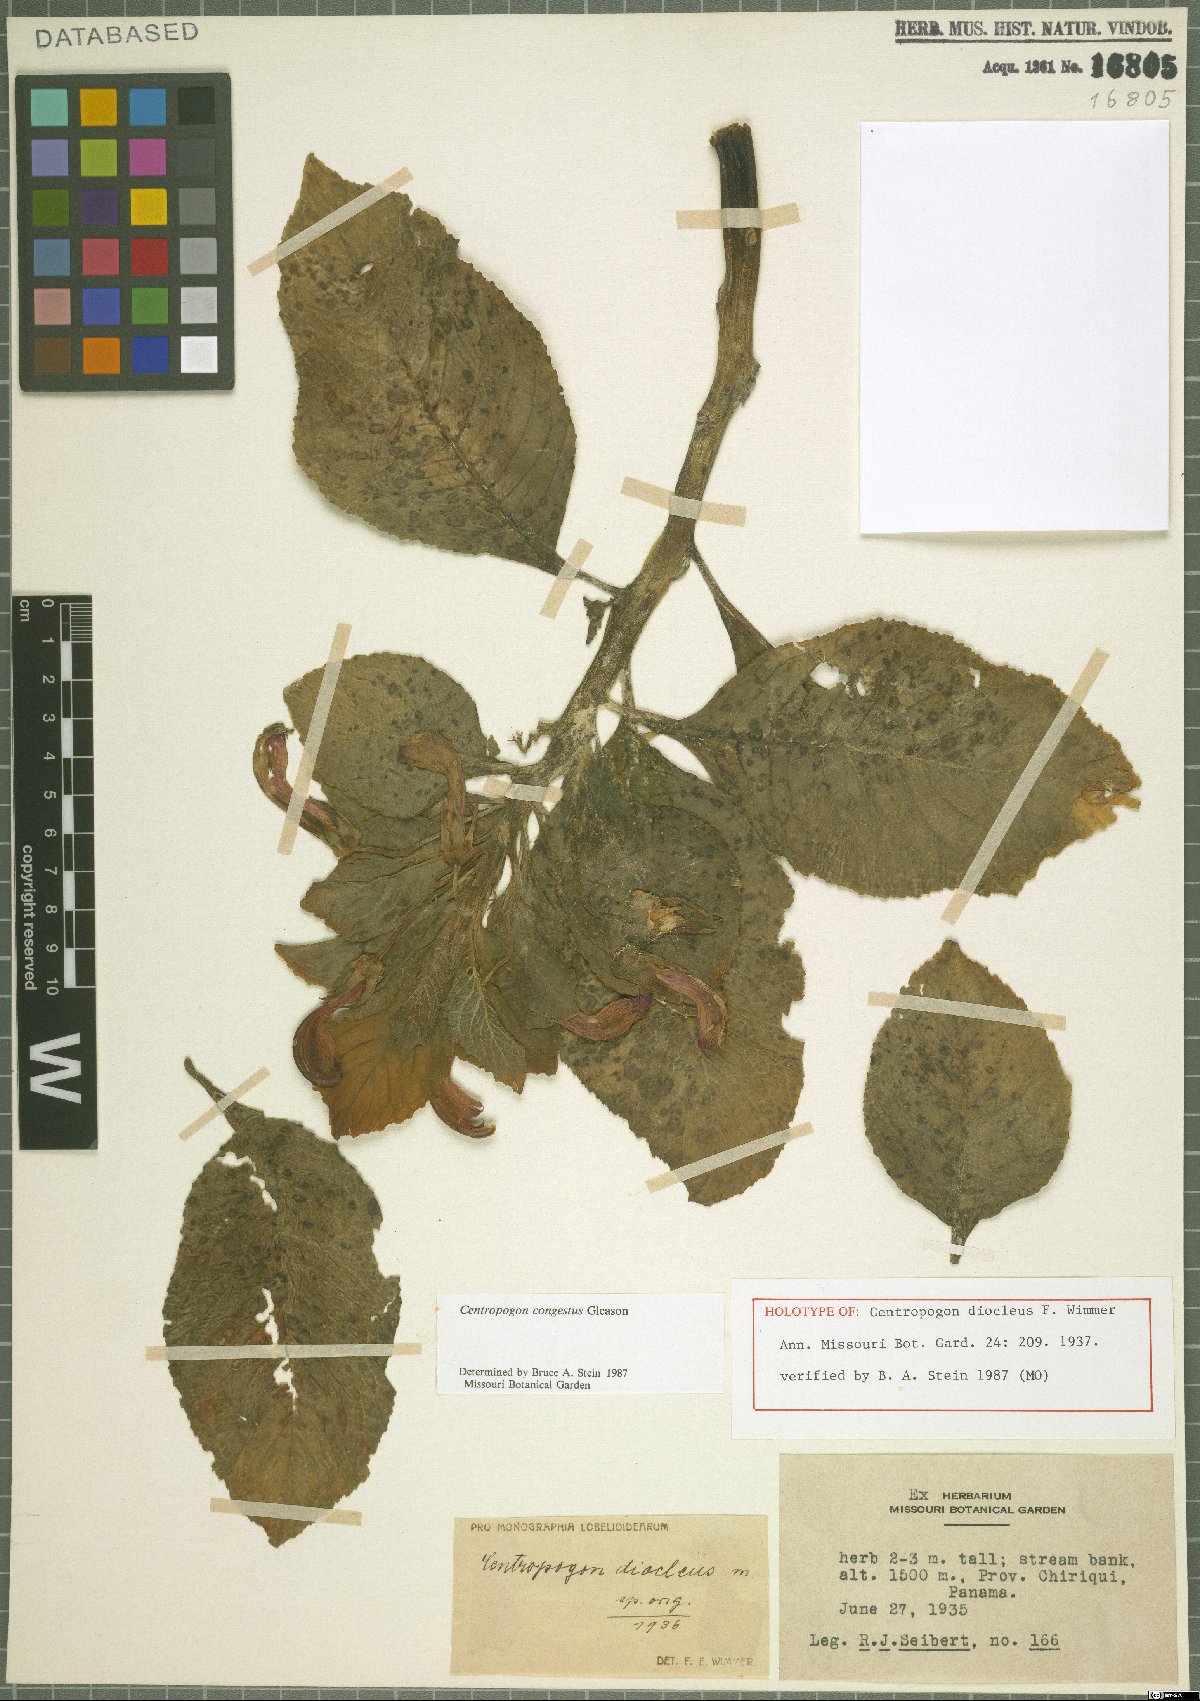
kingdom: Plantae
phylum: Tracheophyta
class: Magnoliopsida
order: Asterales
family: Campanulaceae
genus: Centropogon
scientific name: Centropogon congestus
